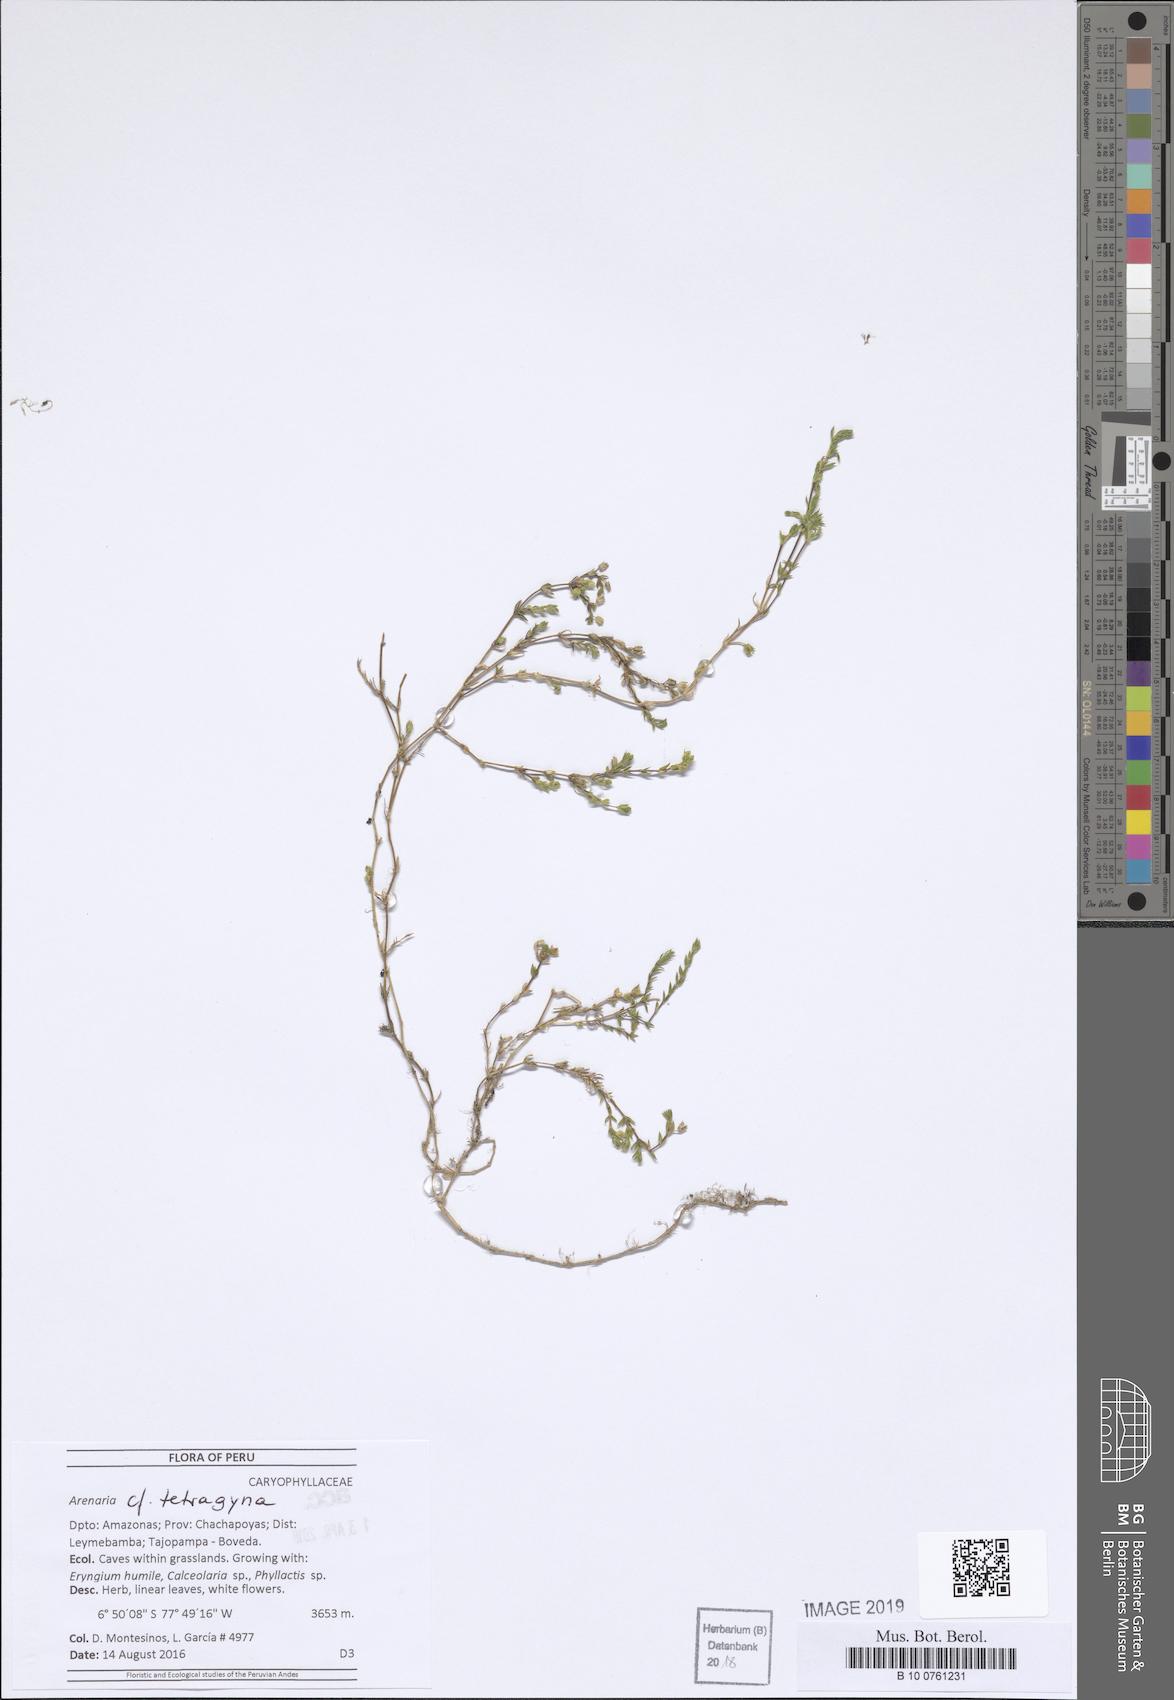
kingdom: Plantae
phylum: Tracheophyta
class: Magnoliopsida
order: Caryophyllales
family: Caryophyllaceae
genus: Arenaria
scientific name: Arenaria tetragyna
